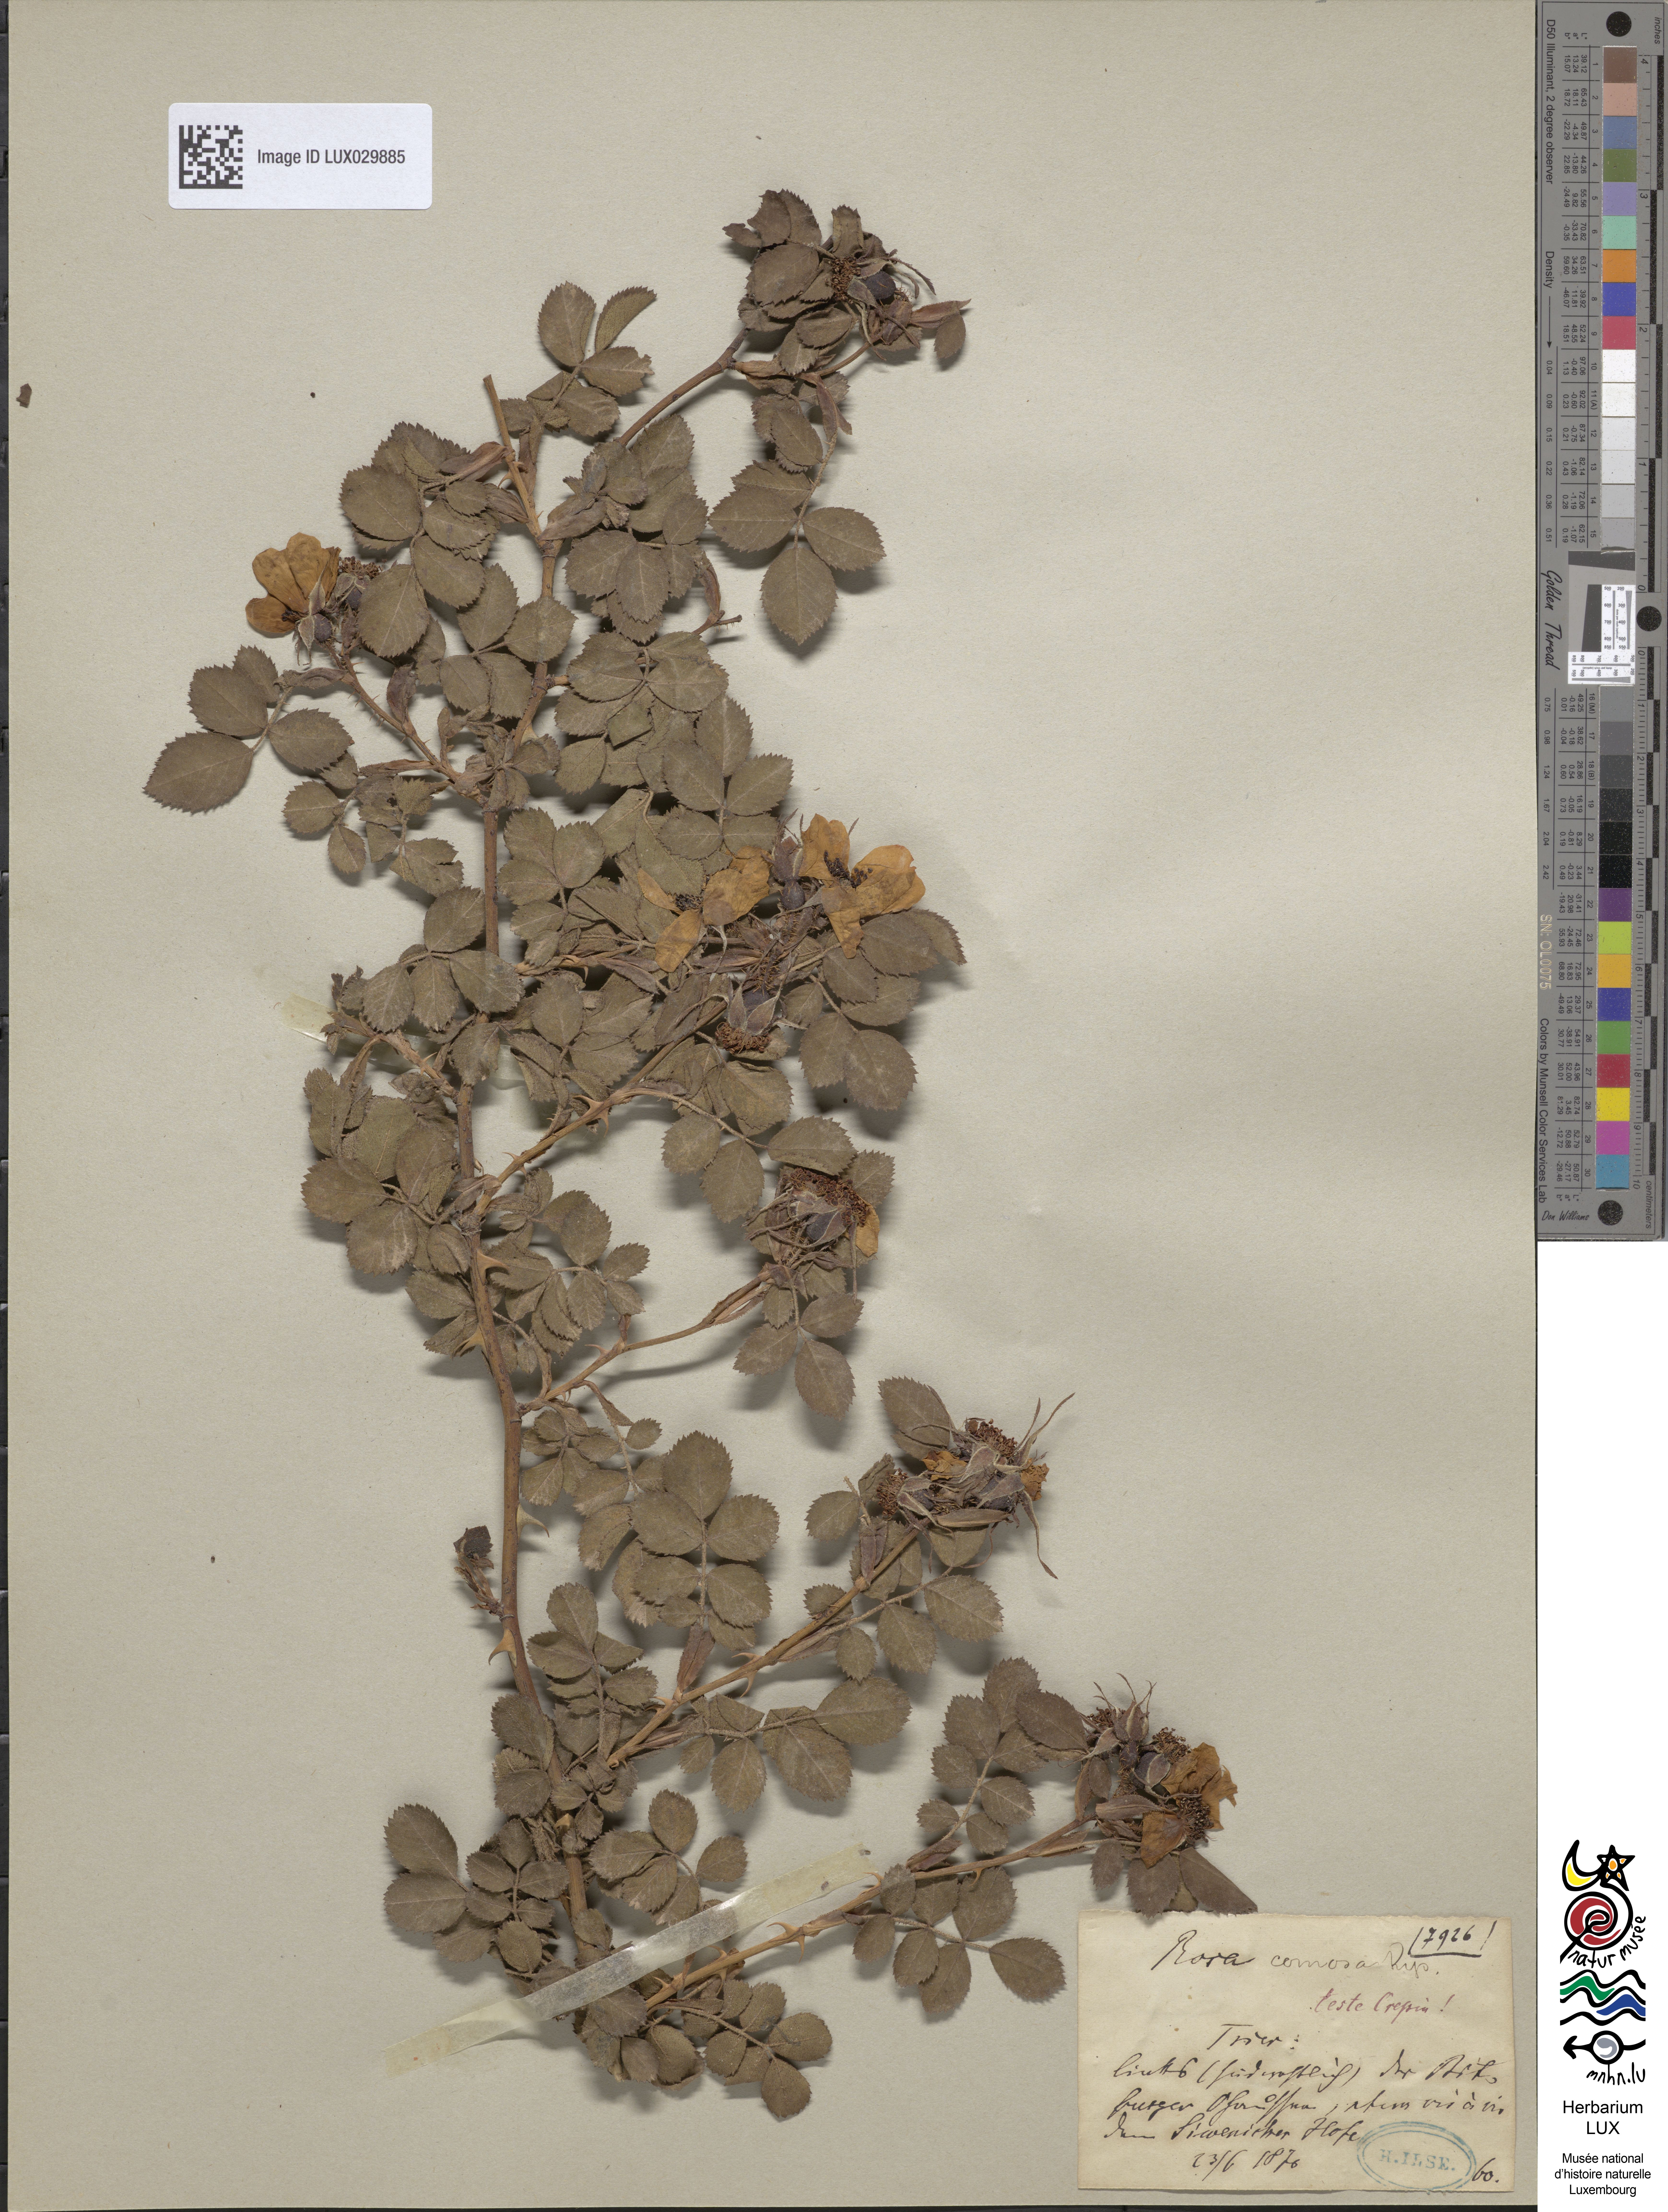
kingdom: Plantae
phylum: Tracheophyta
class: Magnoliopsida
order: Rosales
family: Rosaceae
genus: Rosa
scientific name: Rosa rubiginosa
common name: Sweet-briar
